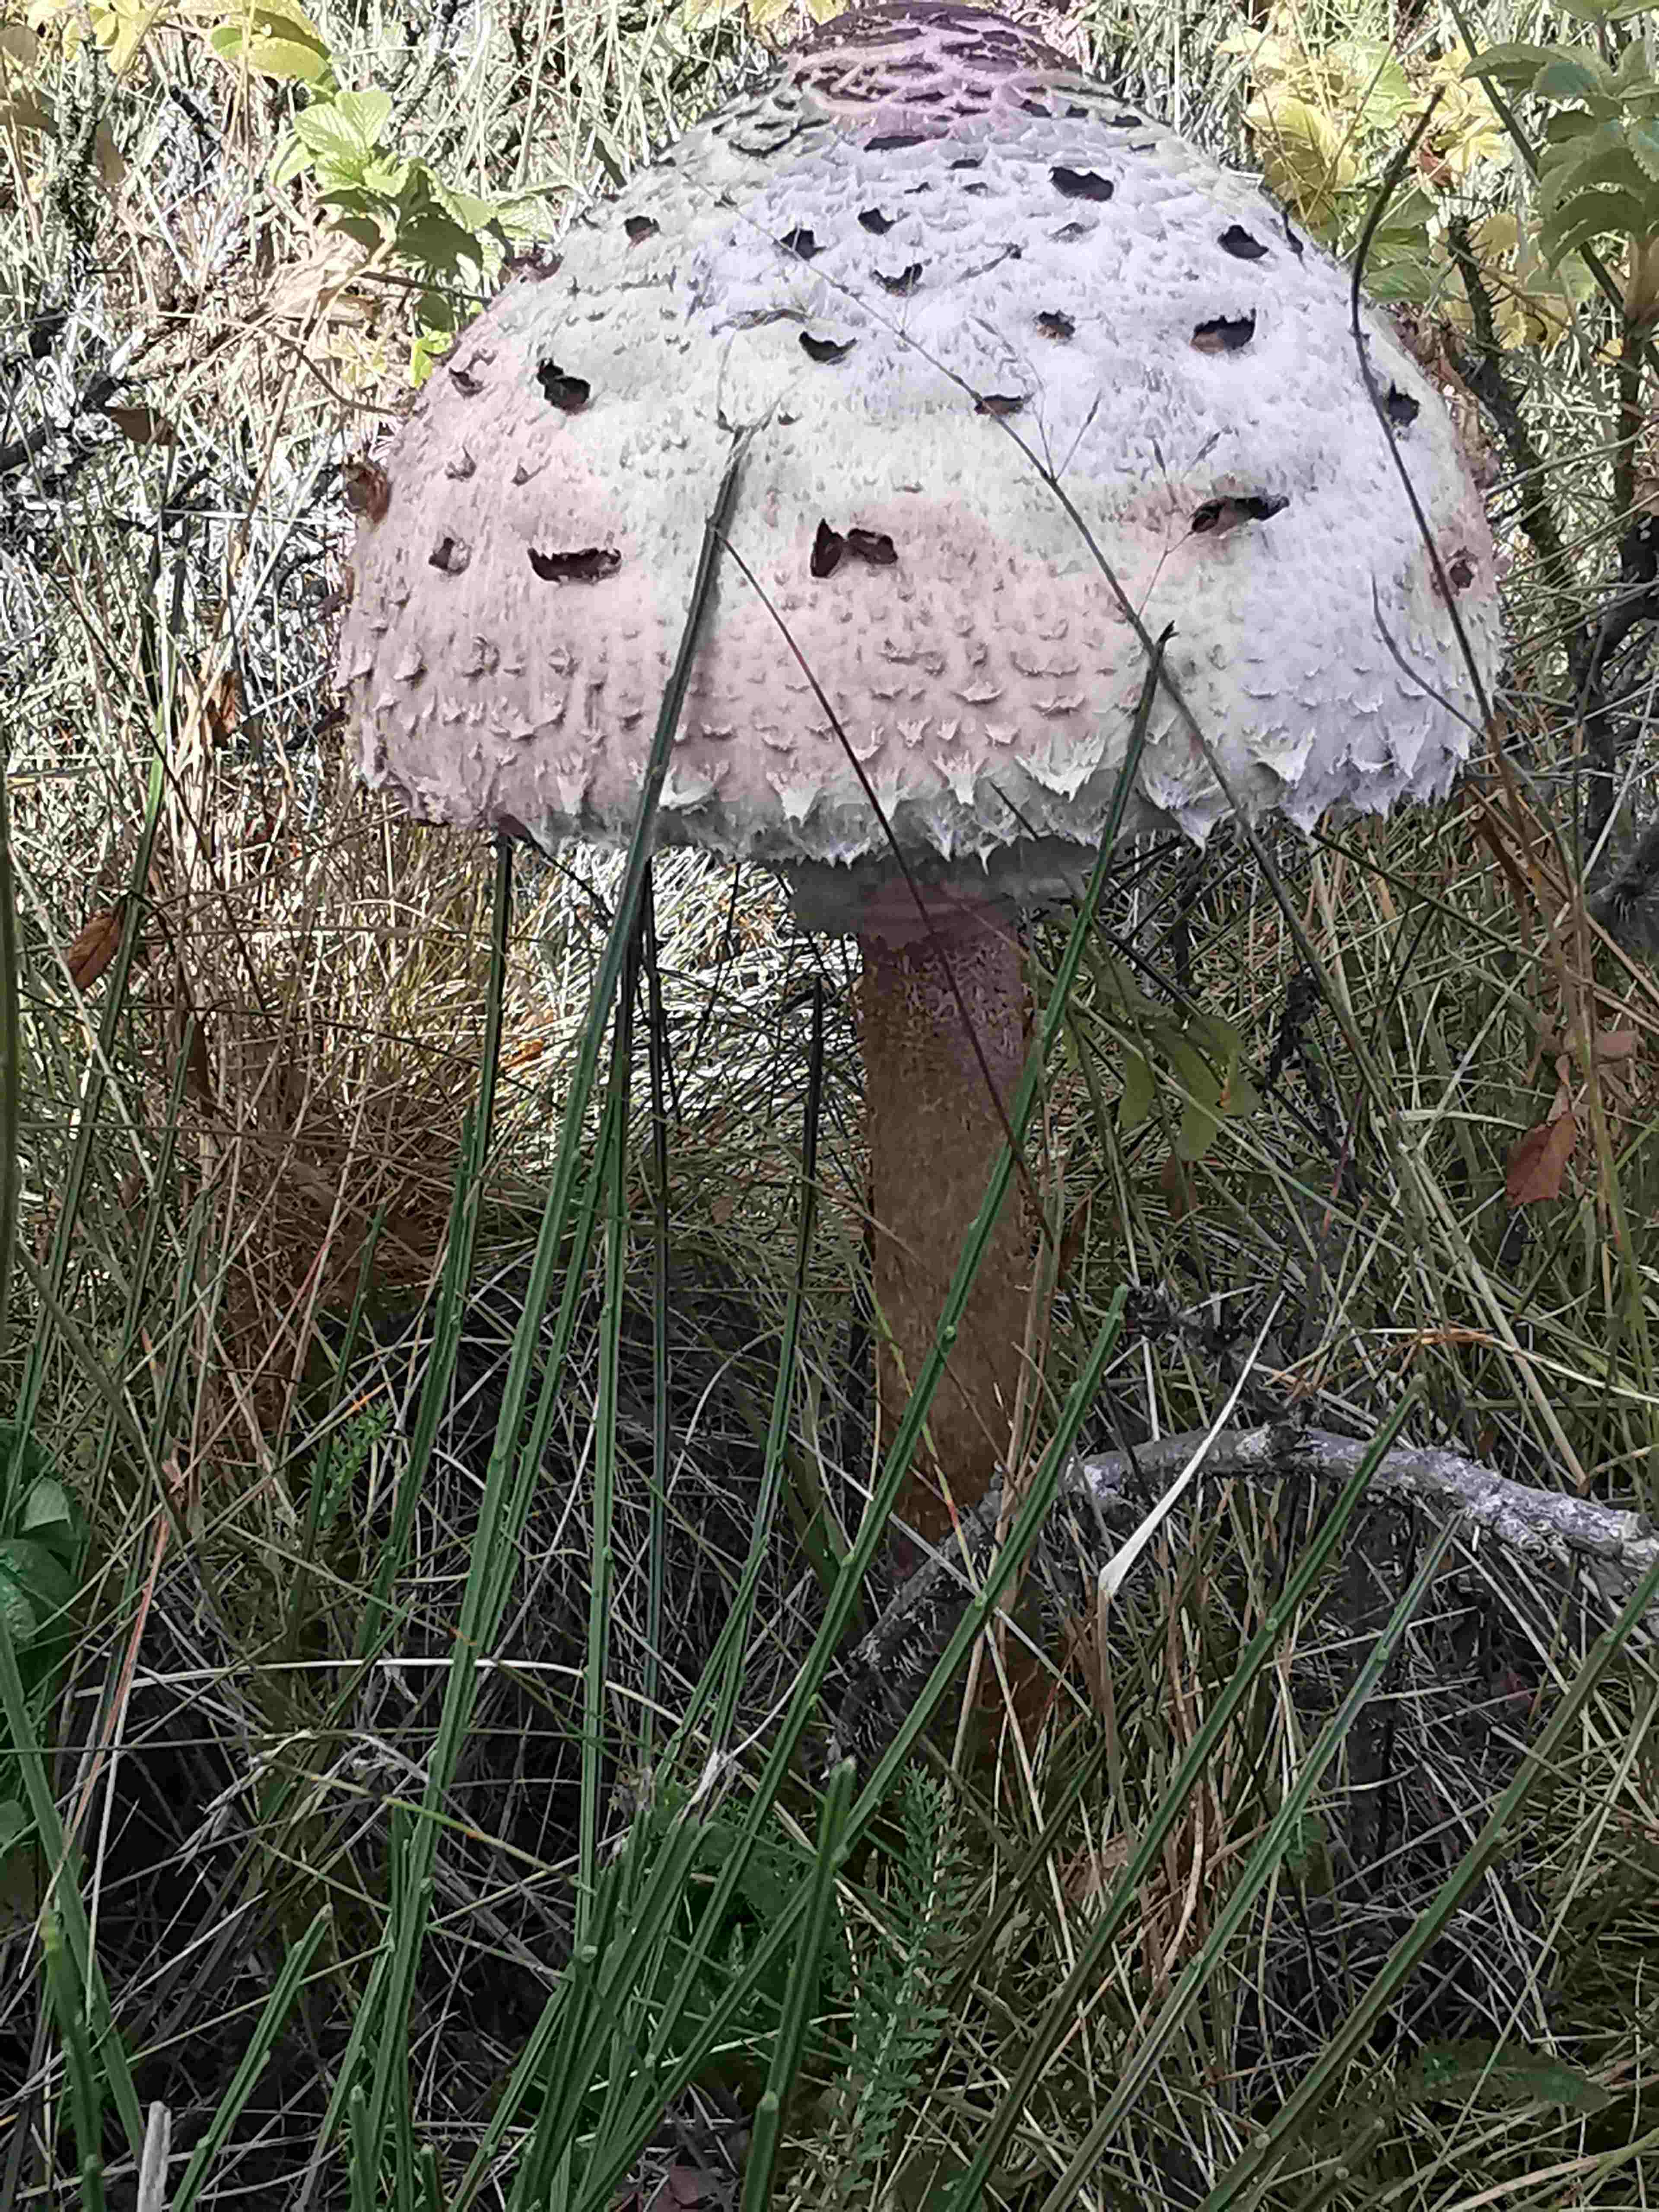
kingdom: Fungi
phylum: Basidiomycota
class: Agaricomycetes
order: Agaricales
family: Agaricaceae
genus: Macrolepiota
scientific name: Macrolepiota procera
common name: stor kæmpeparasolhat
